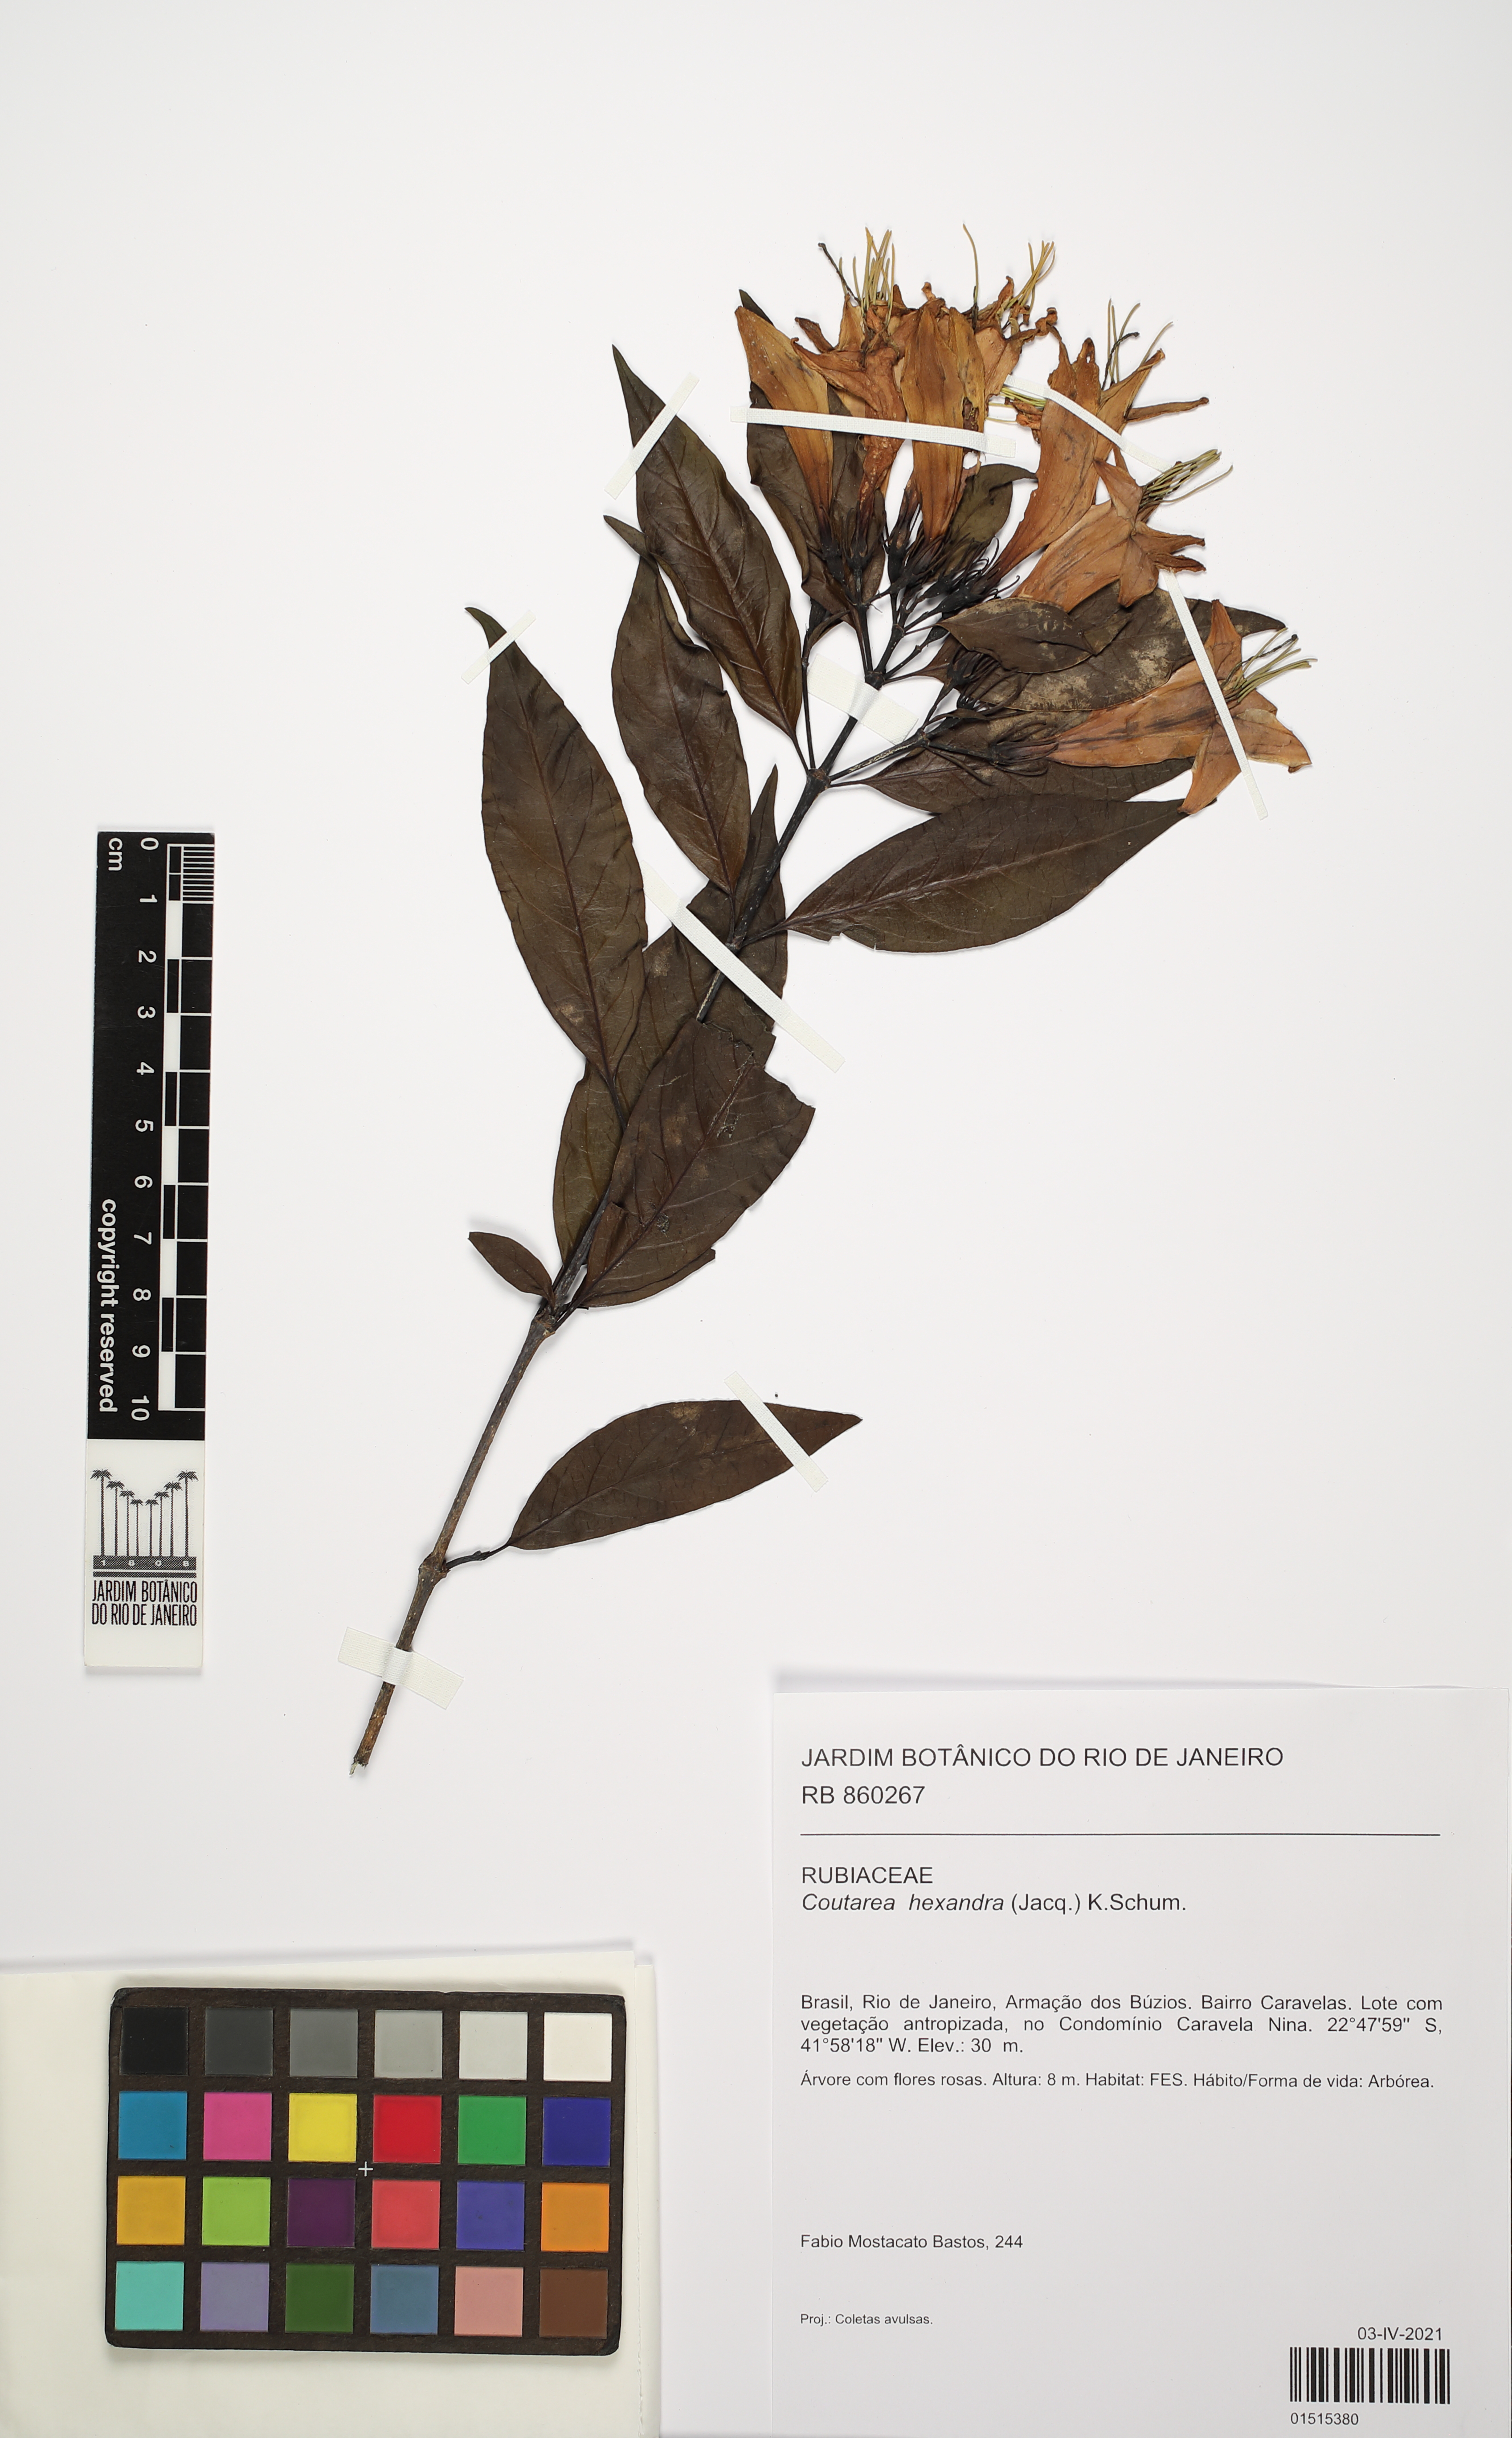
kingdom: Plantae
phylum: Tracheophyta
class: Magnoliopsida
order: Gentianales
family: Rubiaceae
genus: Coutarea
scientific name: Coutarea hexandra
